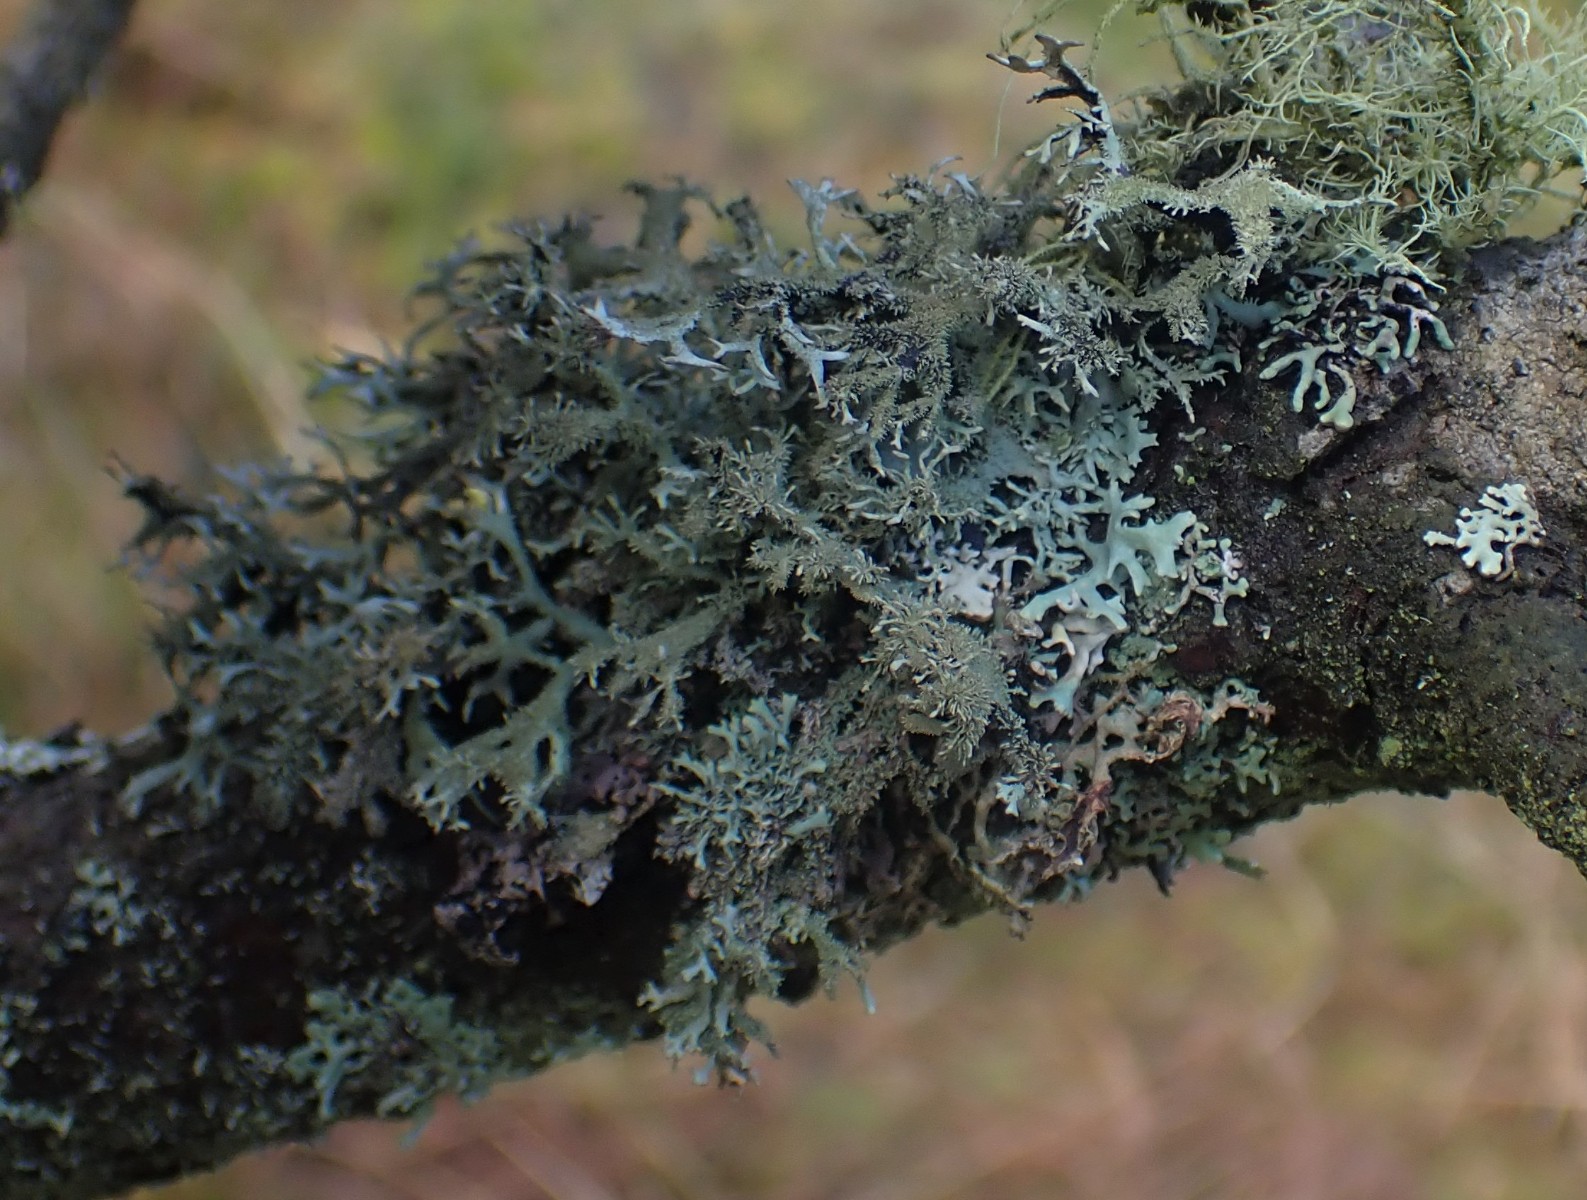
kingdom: Fungi
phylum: Ascomycota
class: Lecanoromycetes
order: Lecanorales
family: Parmeliaceae
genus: Pseudevernia
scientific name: Pseudevernia furfuracea
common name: grå fyrrelav
